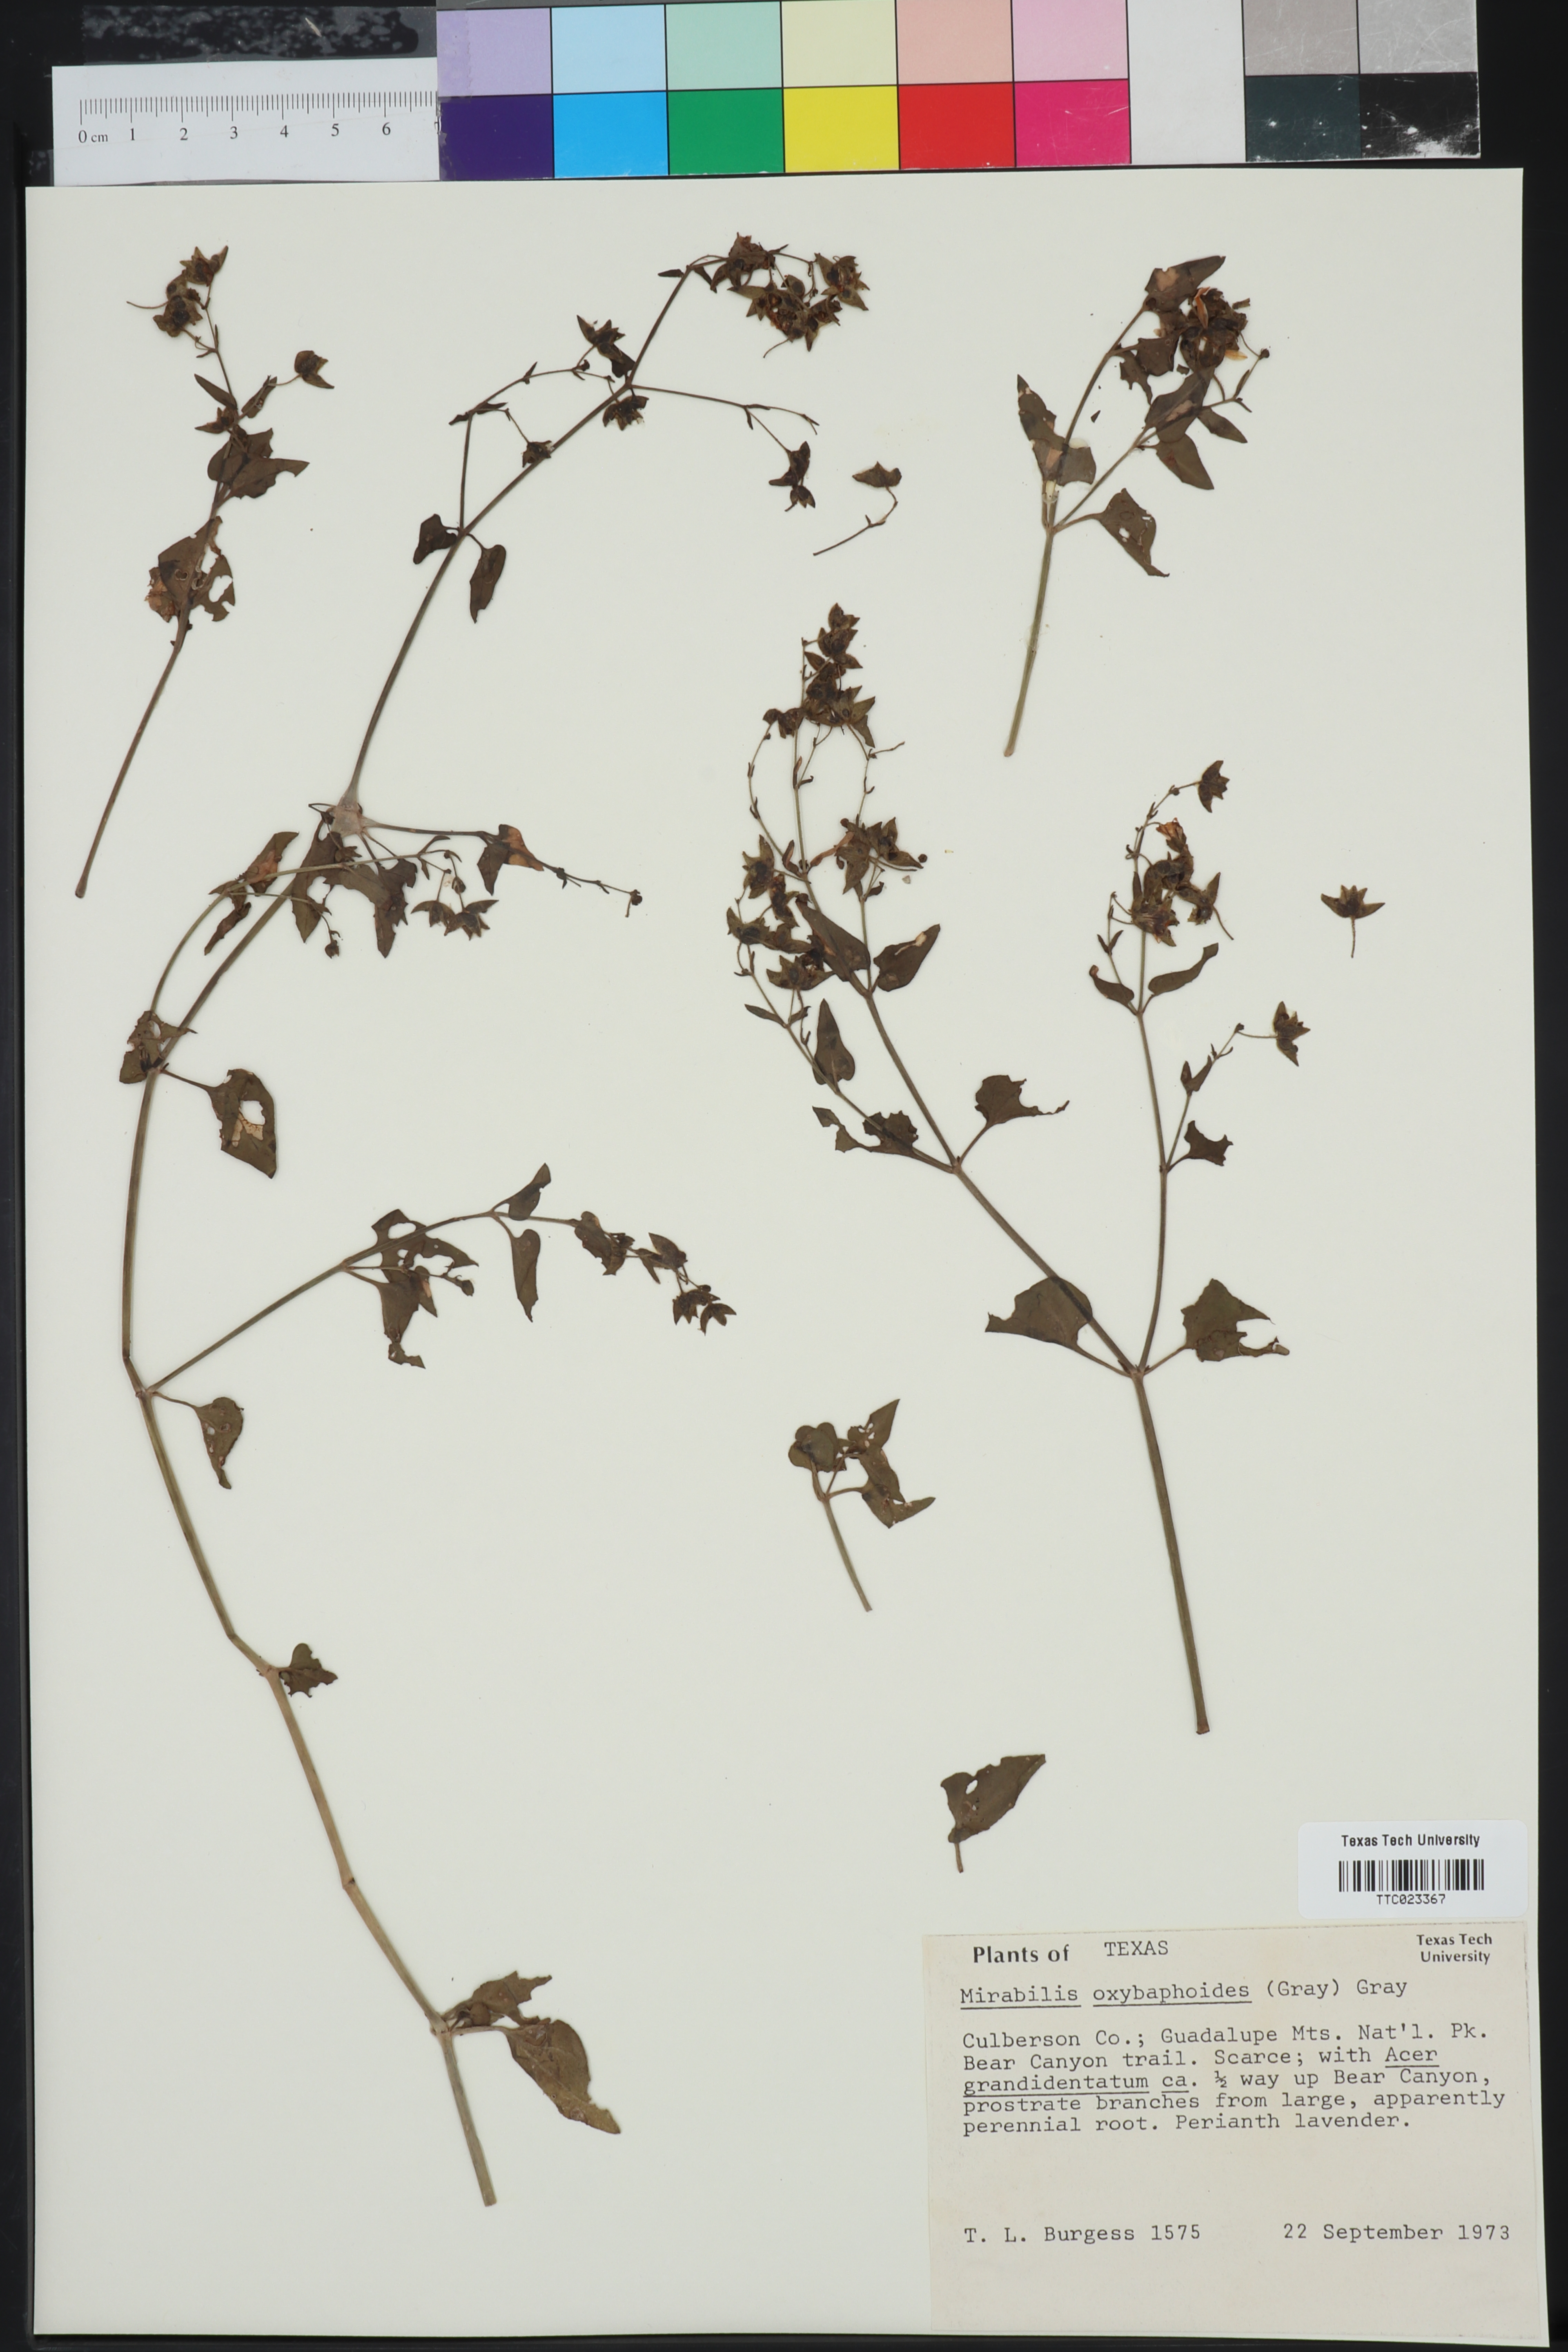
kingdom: Plantae
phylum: Tracheophyta
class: Magnoliopsida
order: Caryophyllales
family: Nyctaginaceae
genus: Mirabilis
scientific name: Mirabilis oxybaphoides
